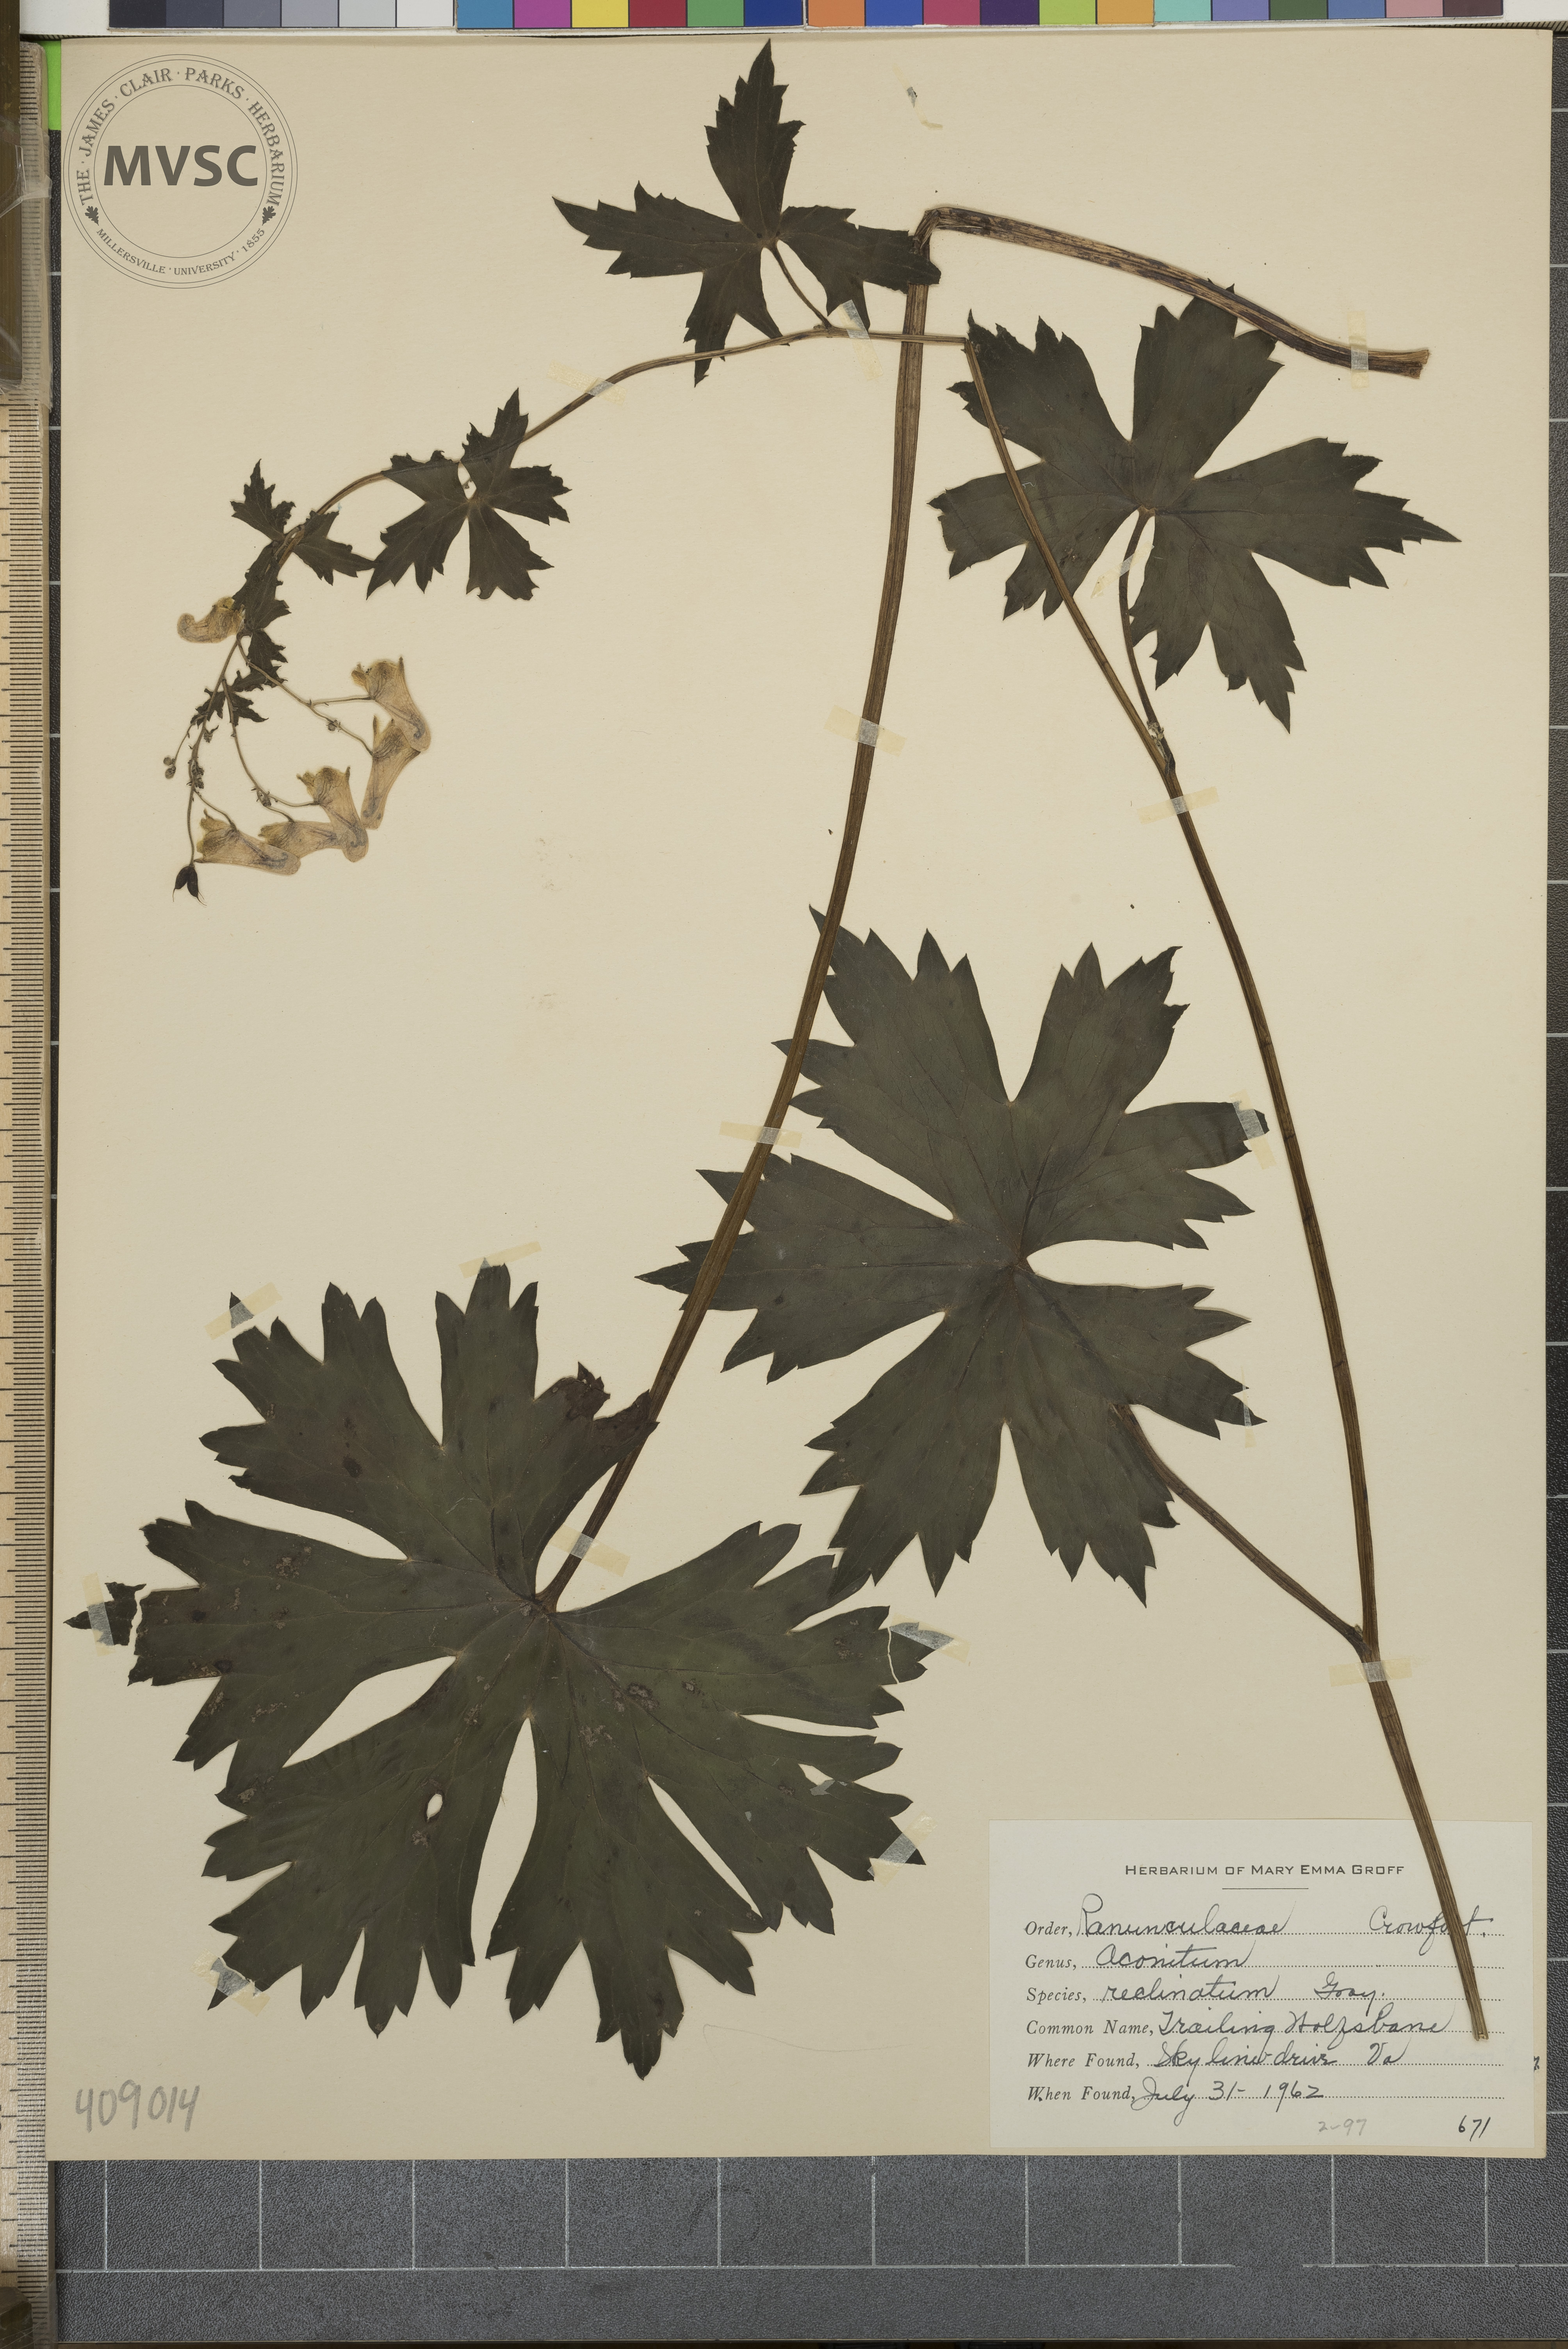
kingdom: Plantae
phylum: Tracheophyta
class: Magnoliopsida
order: Ranunculales
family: Ranunculaceae
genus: Aconitum
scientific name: Aconitum reclinatum
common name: Trailing Wolfsbane
